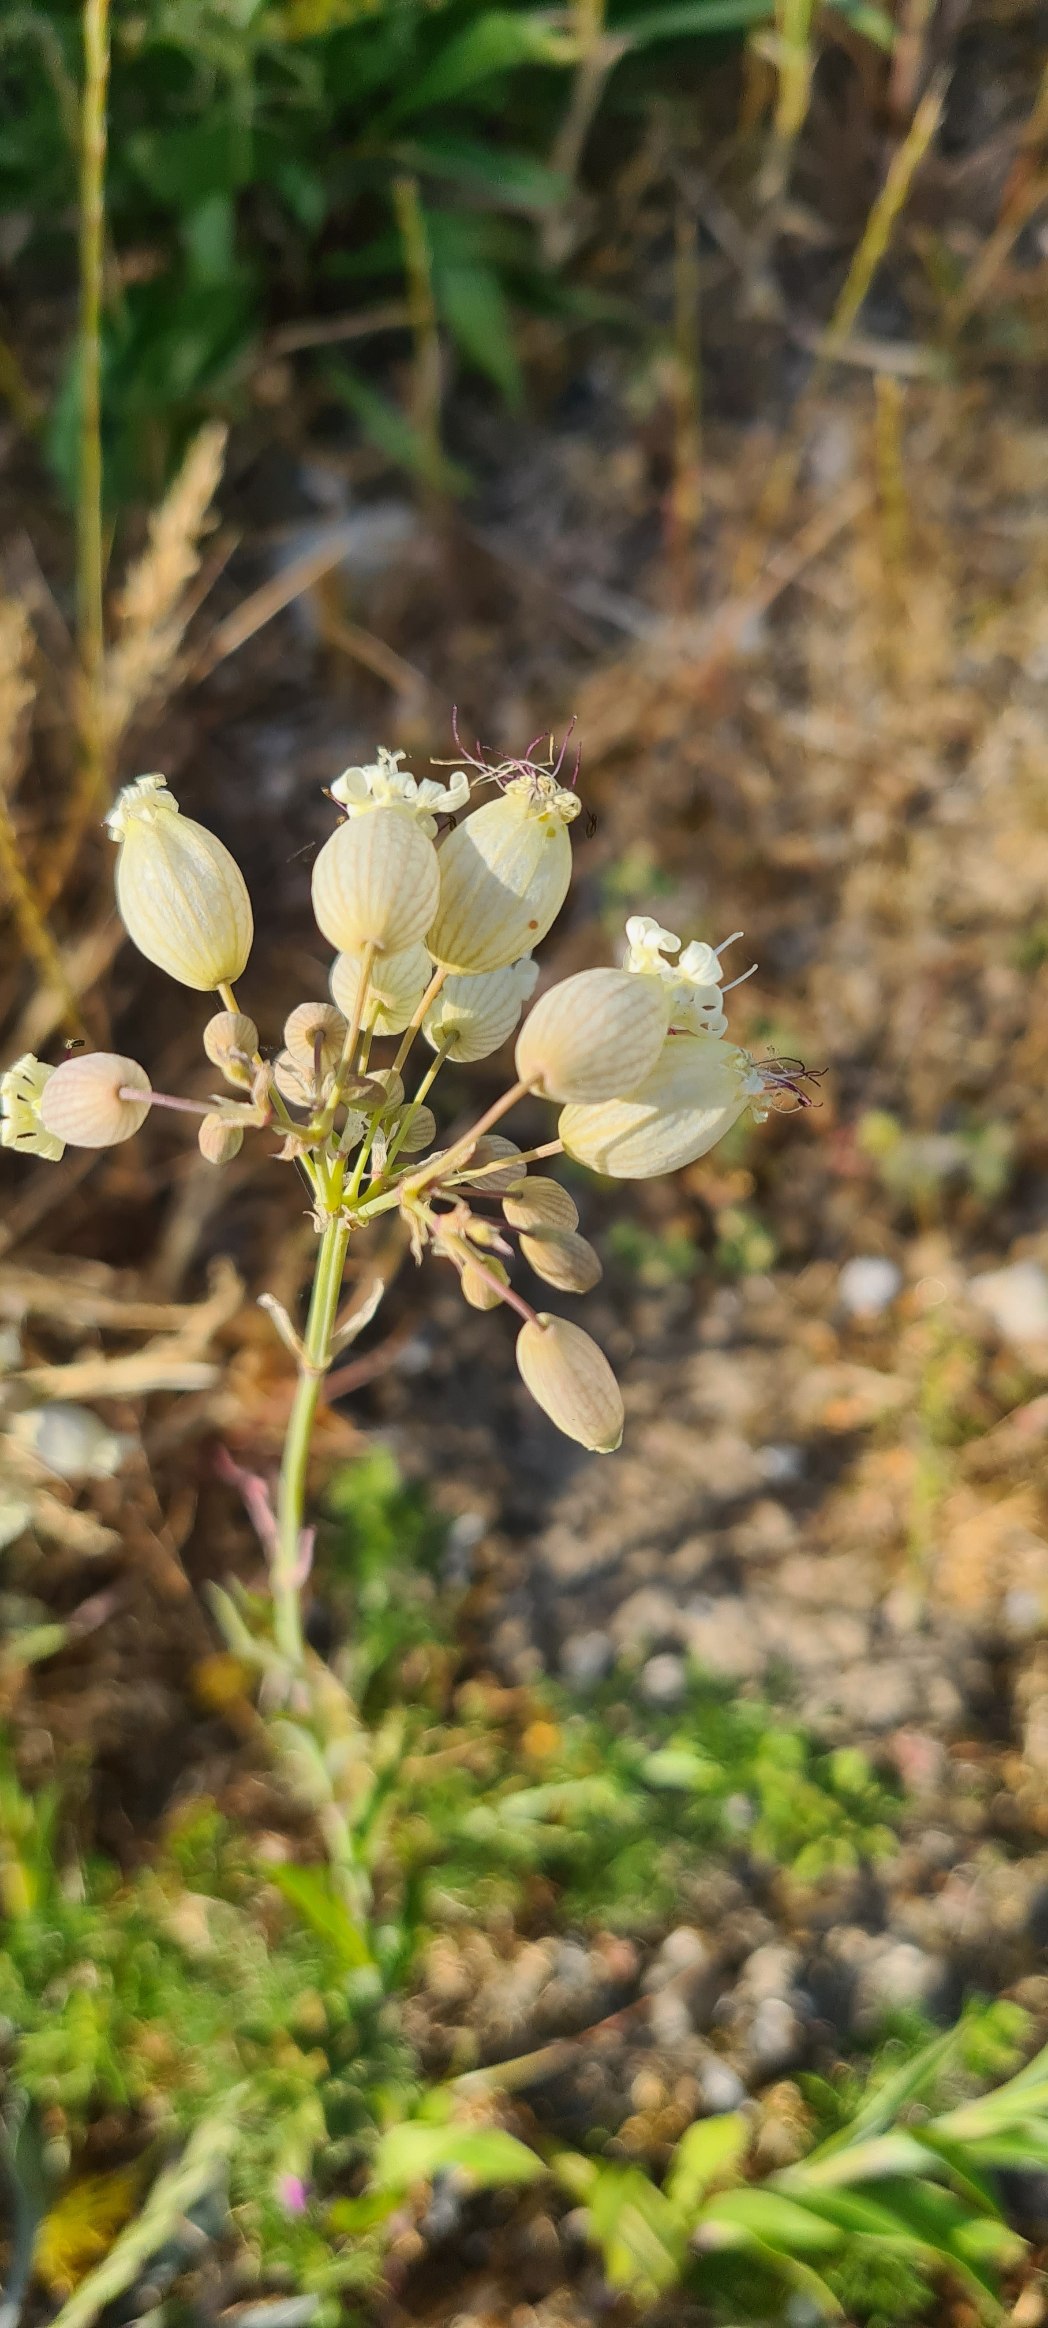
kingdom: Plantae
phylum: Tracheophyta
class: Magnoliopsida
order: Caryophyllales
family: Caryophyllaceae
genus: Silene
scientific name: Silene vulgaris
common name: Blæresmælde
